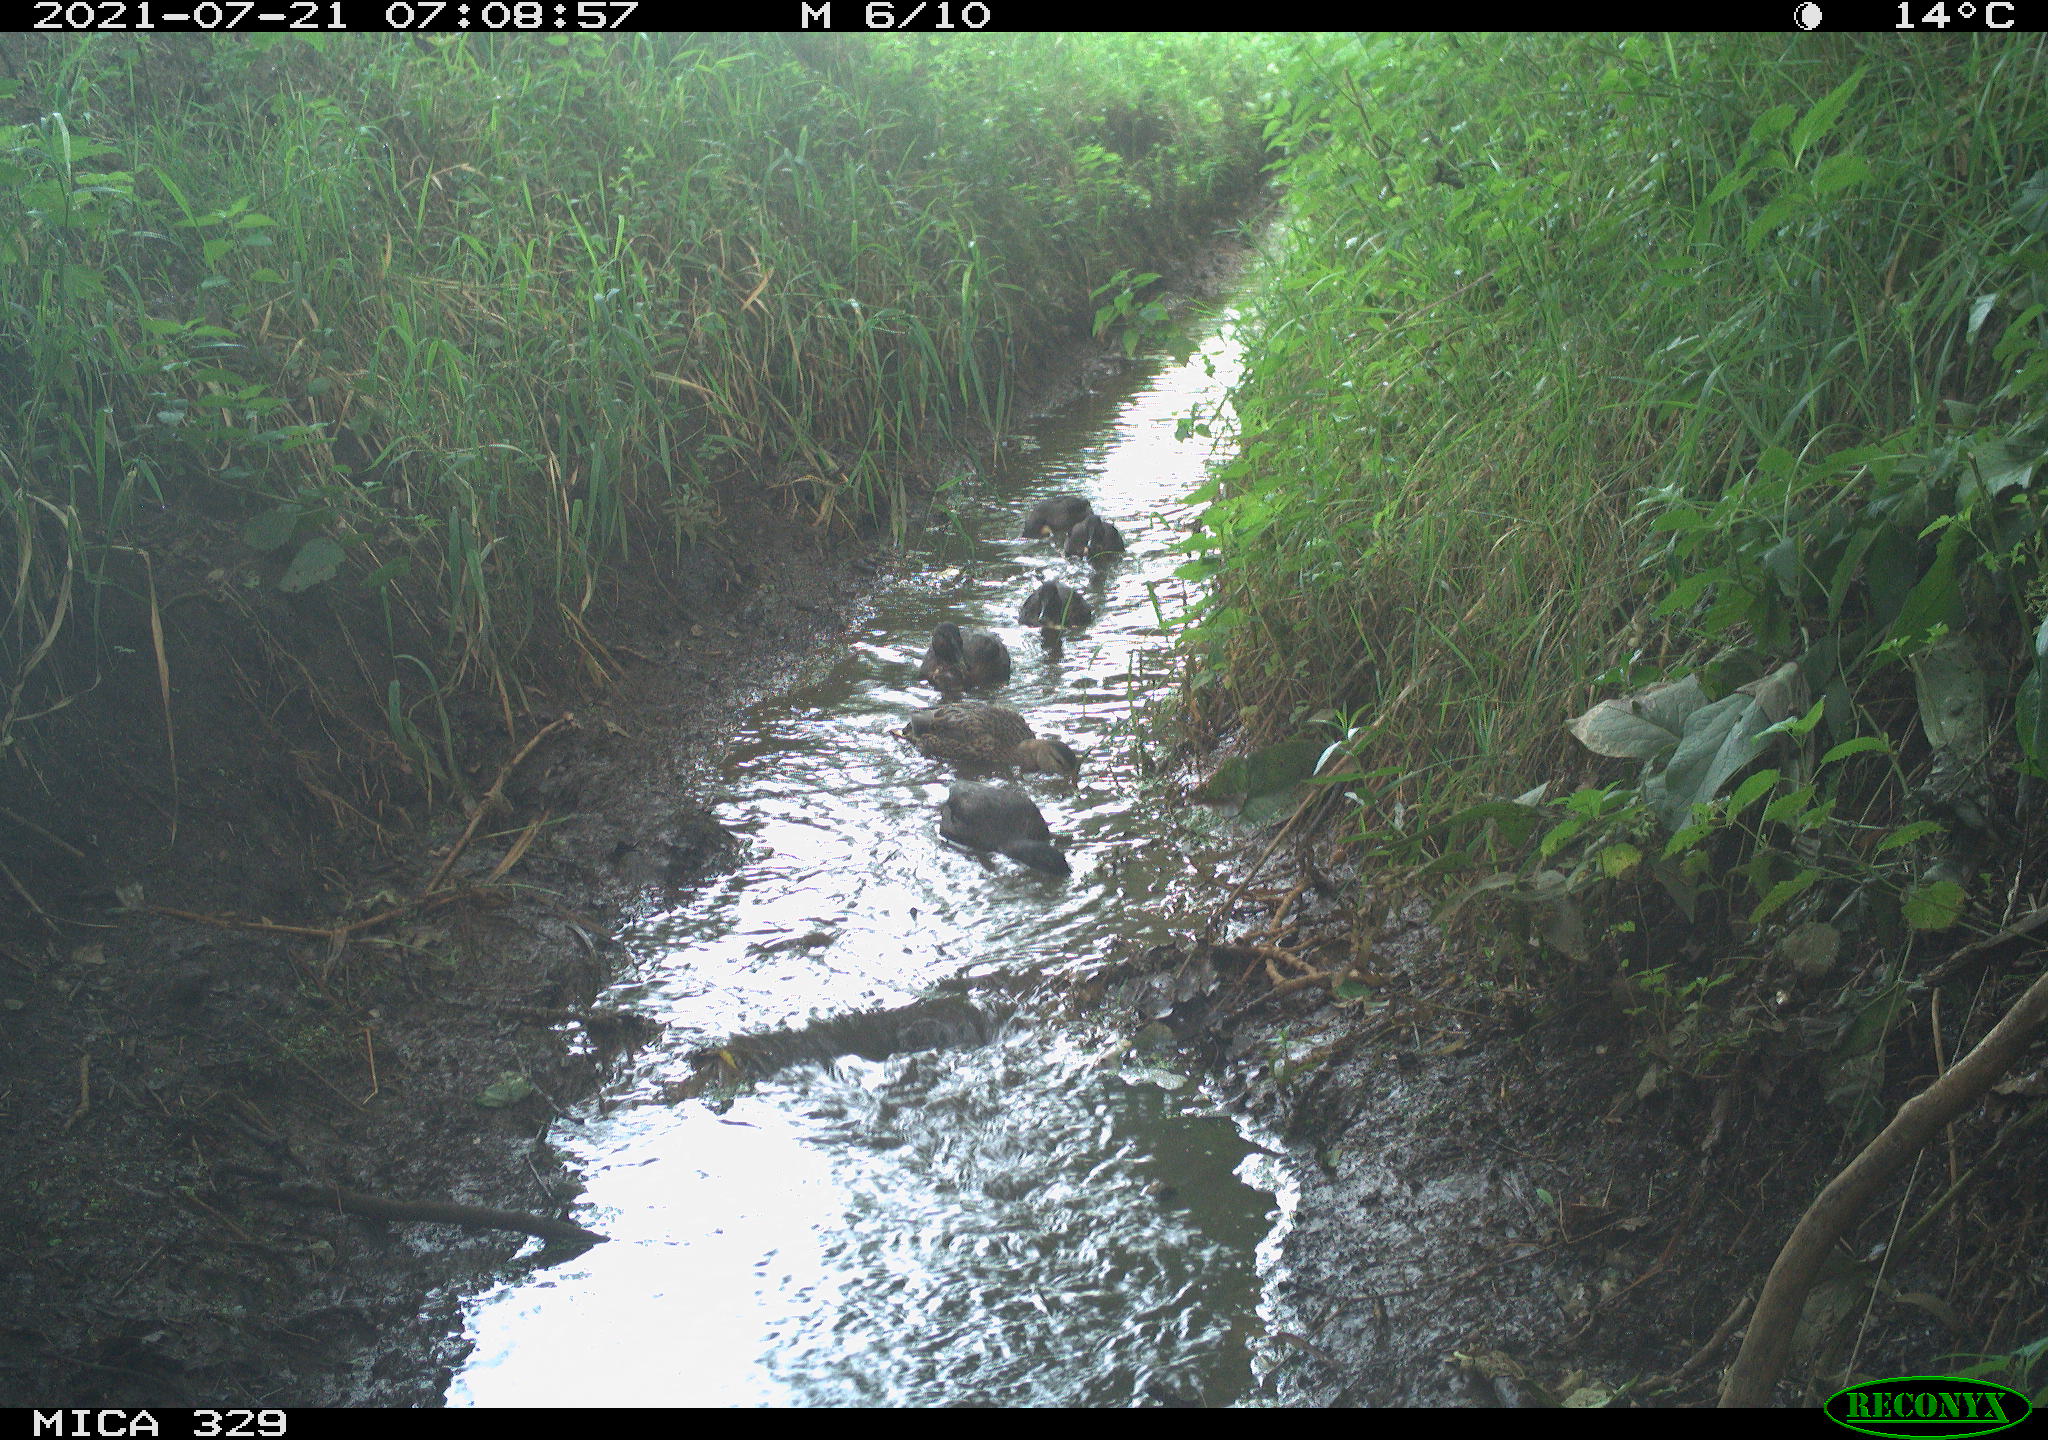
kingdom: Animalia
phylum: Chordata
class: Aves
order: Anseriformes
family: Anatidae
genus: Anas
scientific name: Anas
